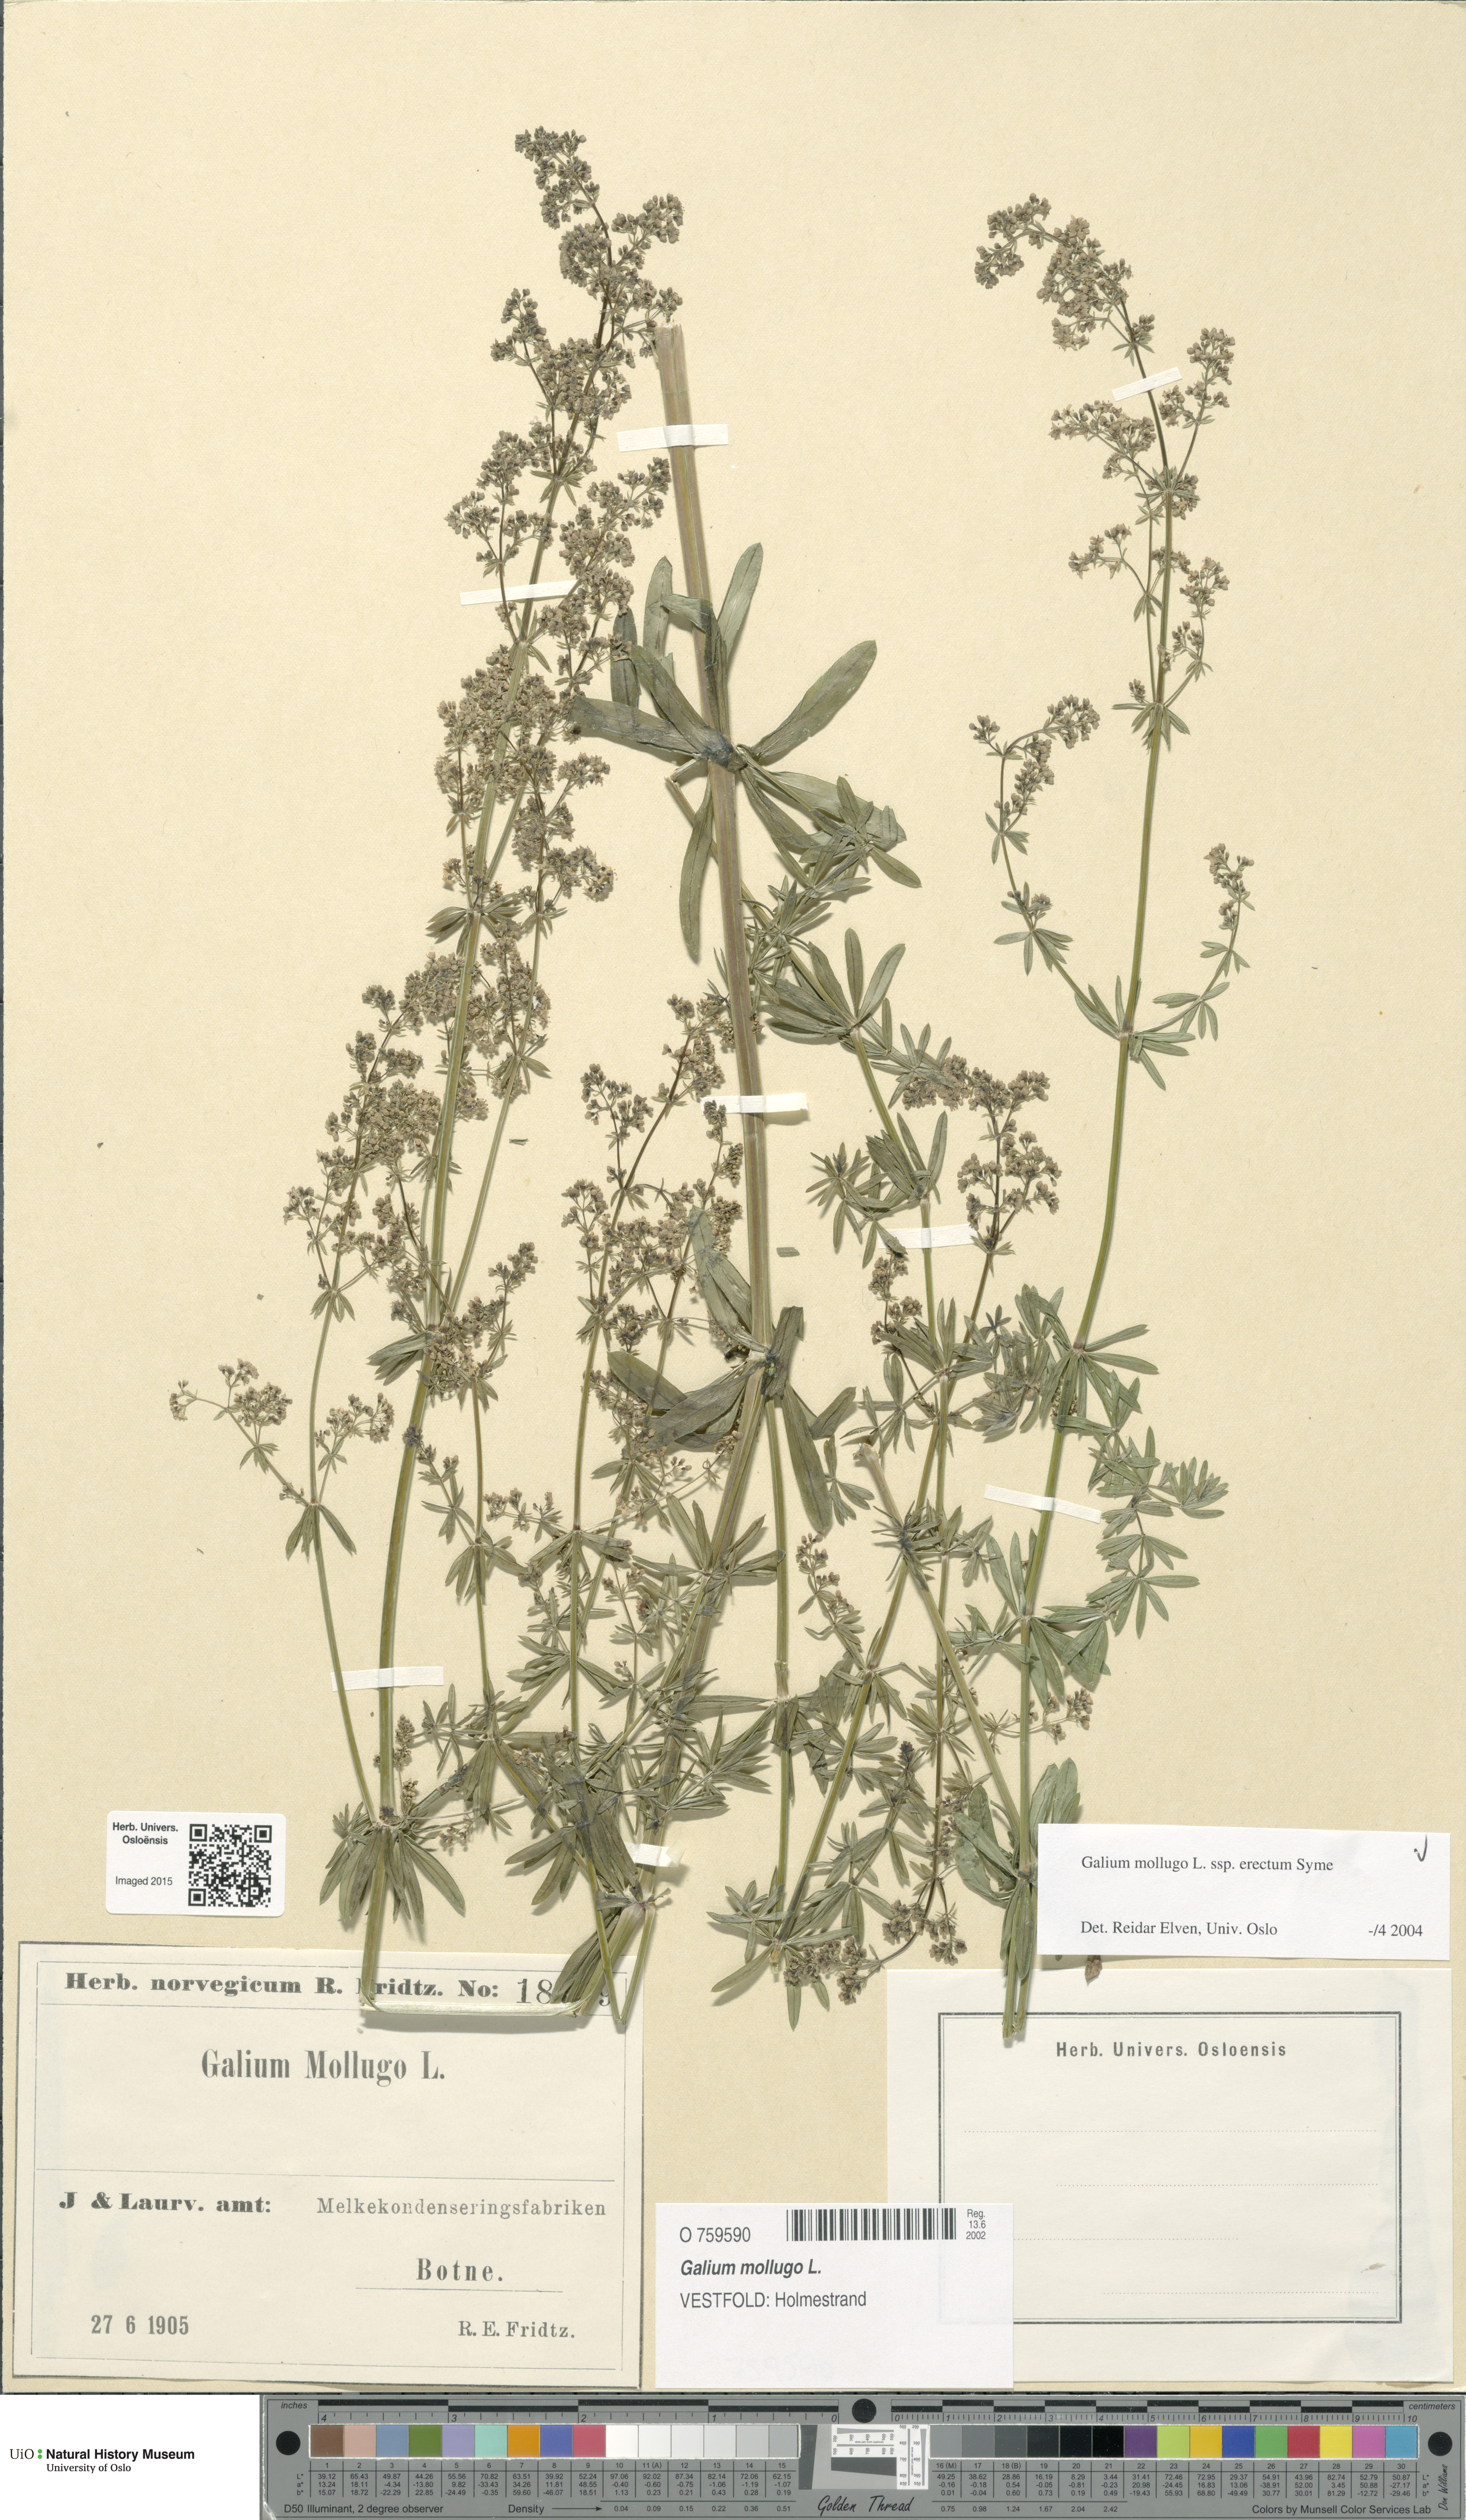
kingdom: Plantae
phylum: Tracheophyta
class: Magnoliopsida
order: Gentianales
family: Rubiaceae
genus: Galium
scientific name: Galium album
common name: White bedstraw
